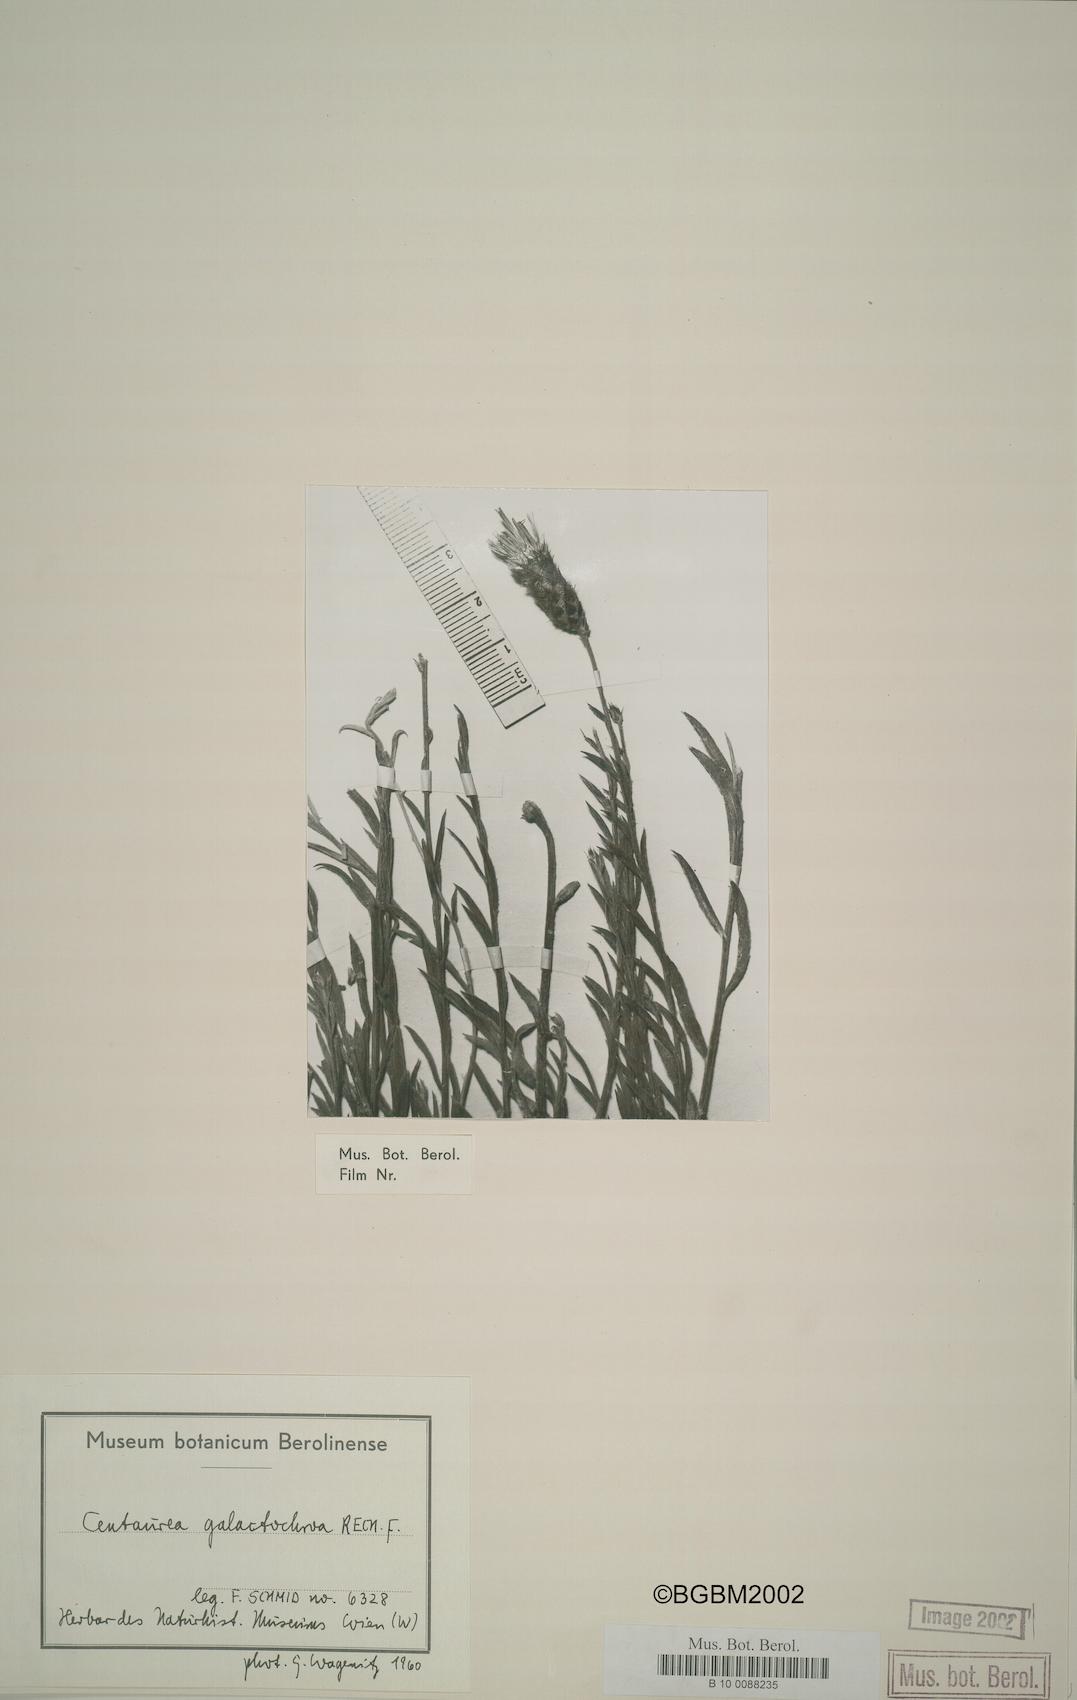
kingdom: Plantae
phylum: Tracheophyta
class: Magnoliopsida
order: Asterales
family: Asteraceae
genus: Psephellus
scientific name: Psephellus galactochroa
